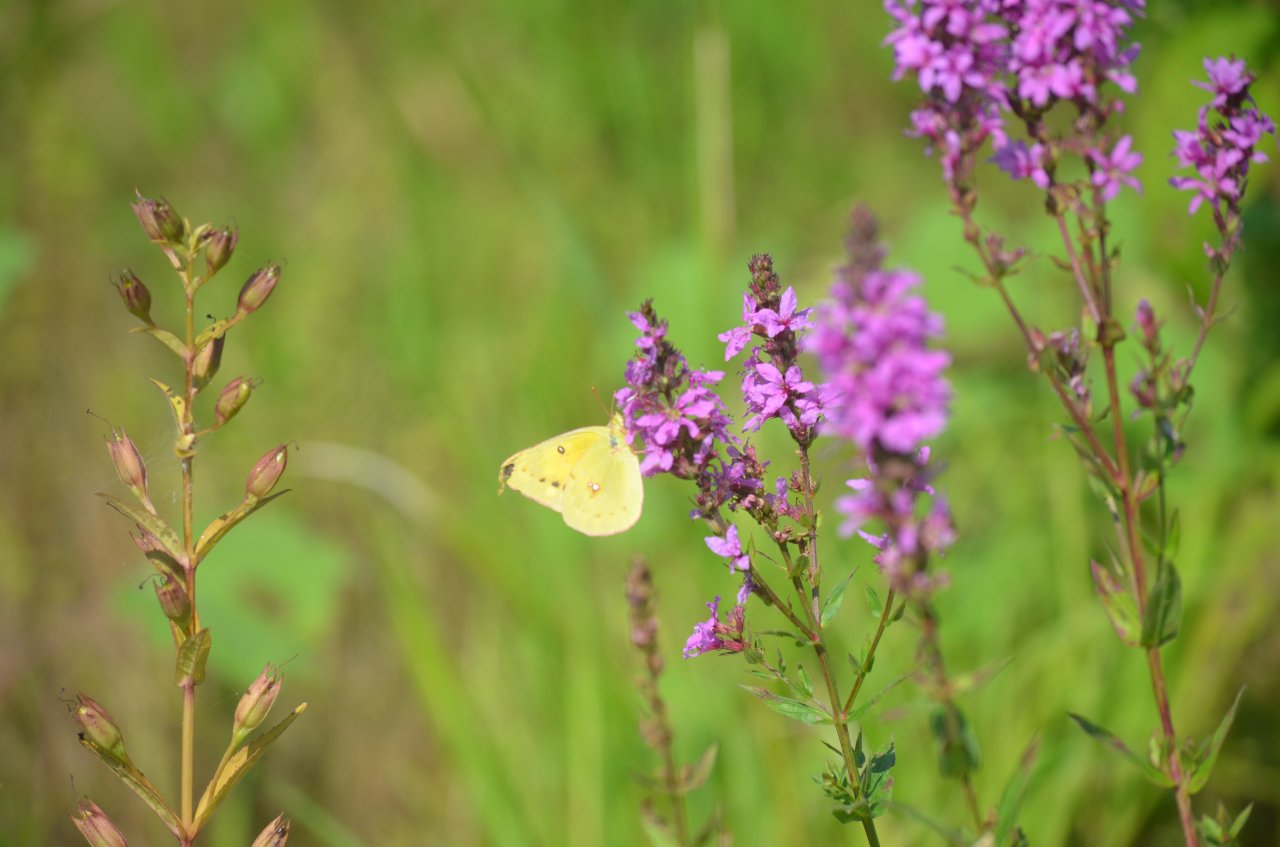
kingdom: Animalia
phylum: Arthropoda
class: Insecta
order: Lepidoptera
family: Pieridae
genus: Colias
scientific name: Colias eurytheme
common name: Orange Sulphur
